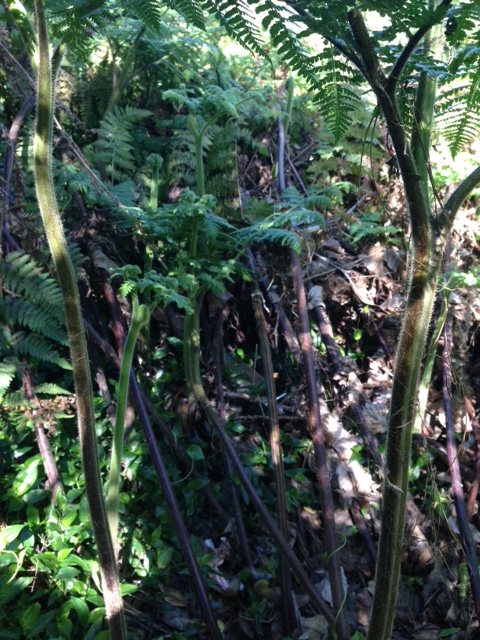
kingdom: Plantae
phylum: Tracheophyta
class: Polypodiopsida
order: Polypodiales
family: Dennstaedtiaceae
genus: Hypolepis
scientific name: Hypolepis dicksonioides
